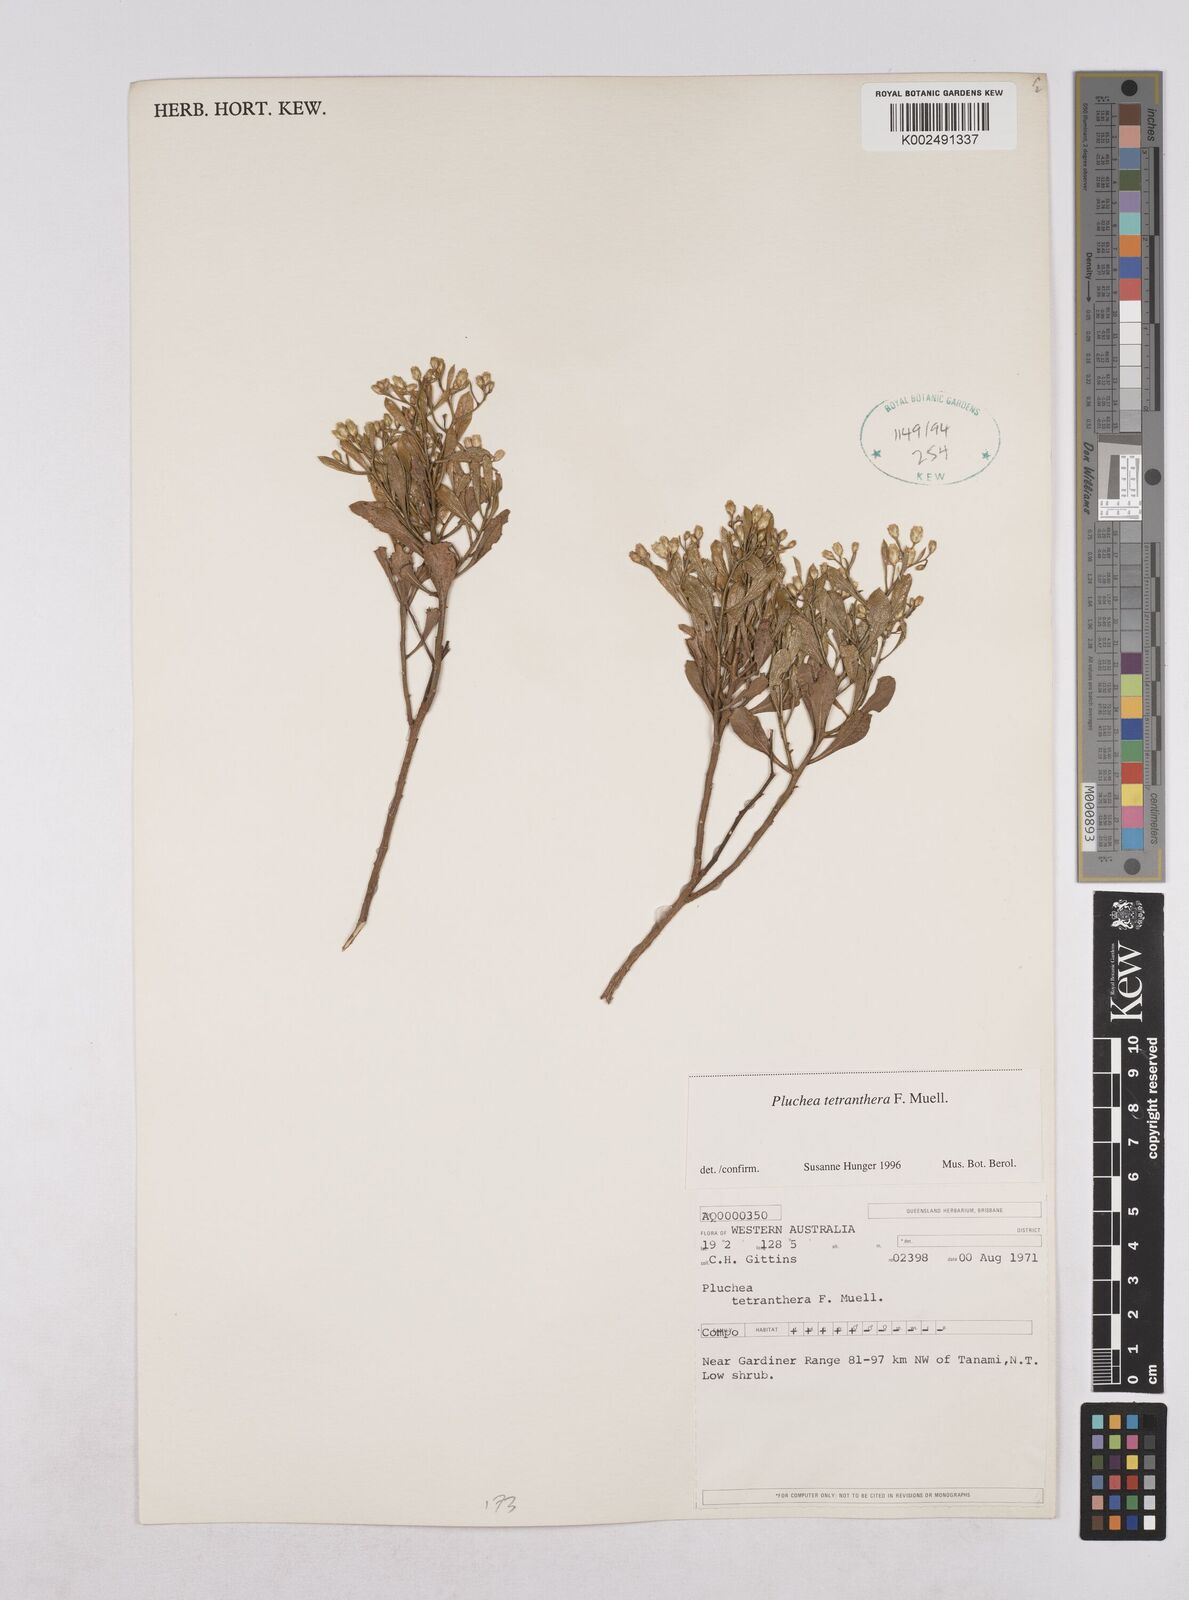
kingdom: Plantae
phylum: Tracheophyta
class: Magnoliopsida
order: Asterales
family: Asteraceae
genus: Pluchea
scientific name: Pluchea tetranthera
